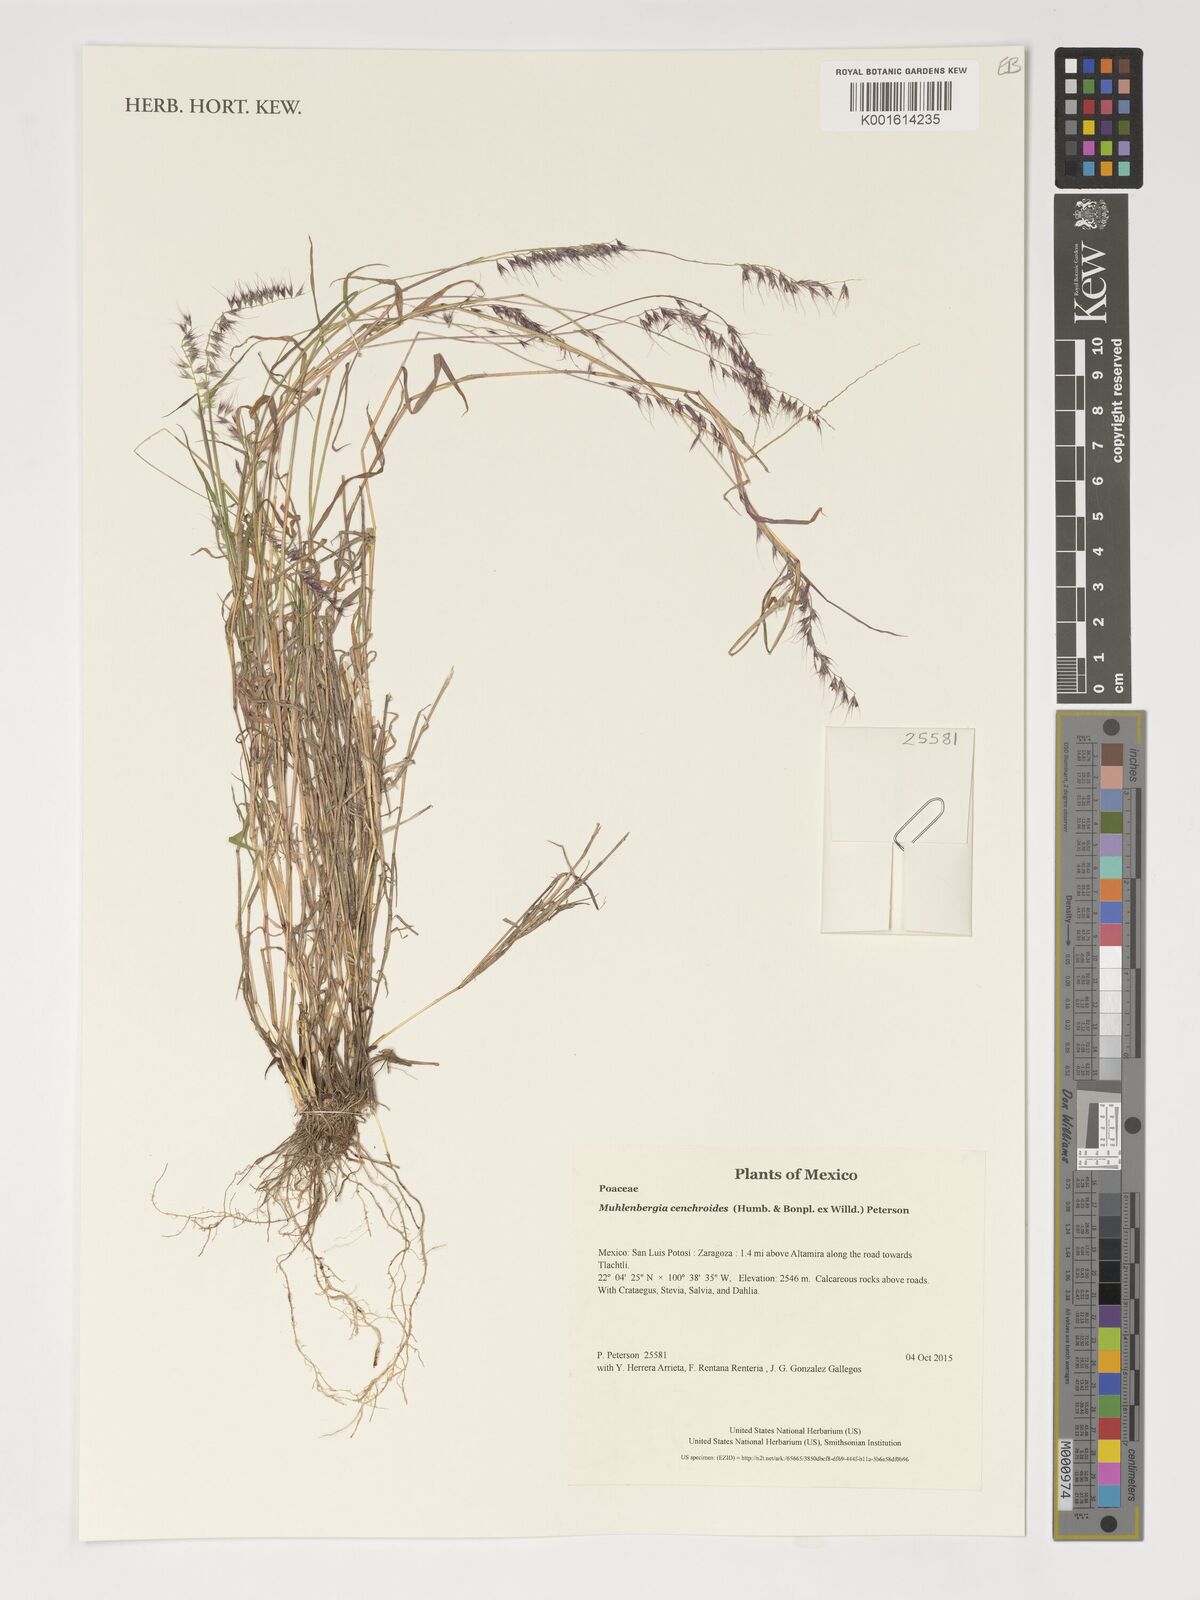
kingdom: Plantae
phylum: Tracheophyta
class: Liliopsida
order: Poales
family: Poaceae
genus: Muhlenbergia
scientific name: Muhlenbergia cenchroides
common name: Relaxgrass
